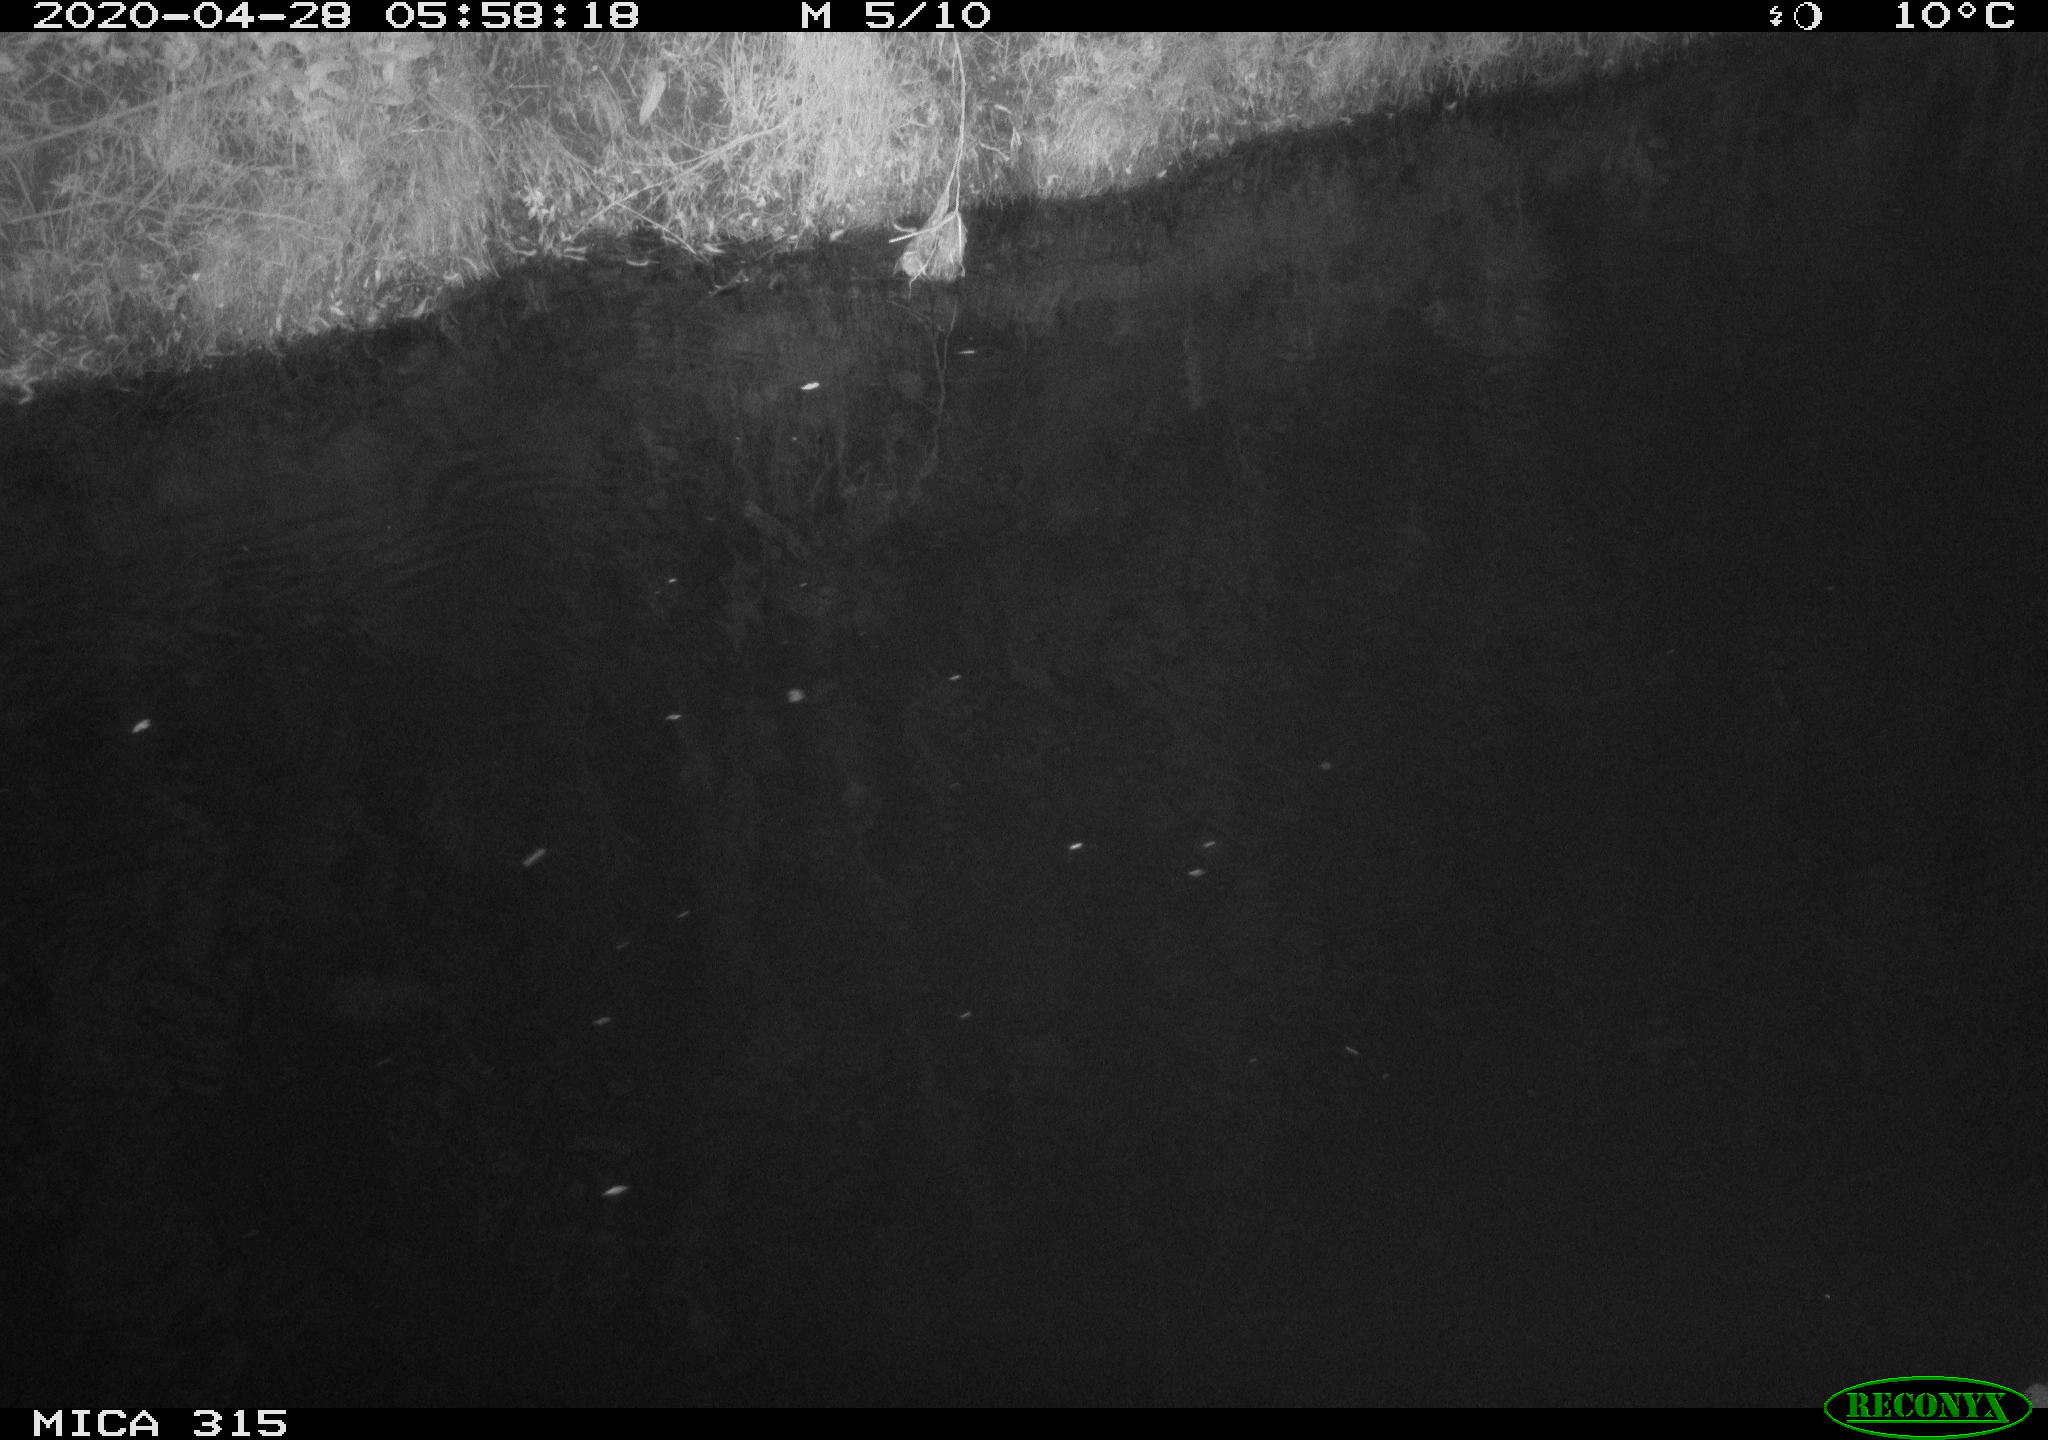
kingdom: Animalia
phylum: Chordata
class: Aves
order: Gruiformes
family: Rallidae
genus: Gallinula
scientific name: Gallinula chloropus
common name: Common moorhen
